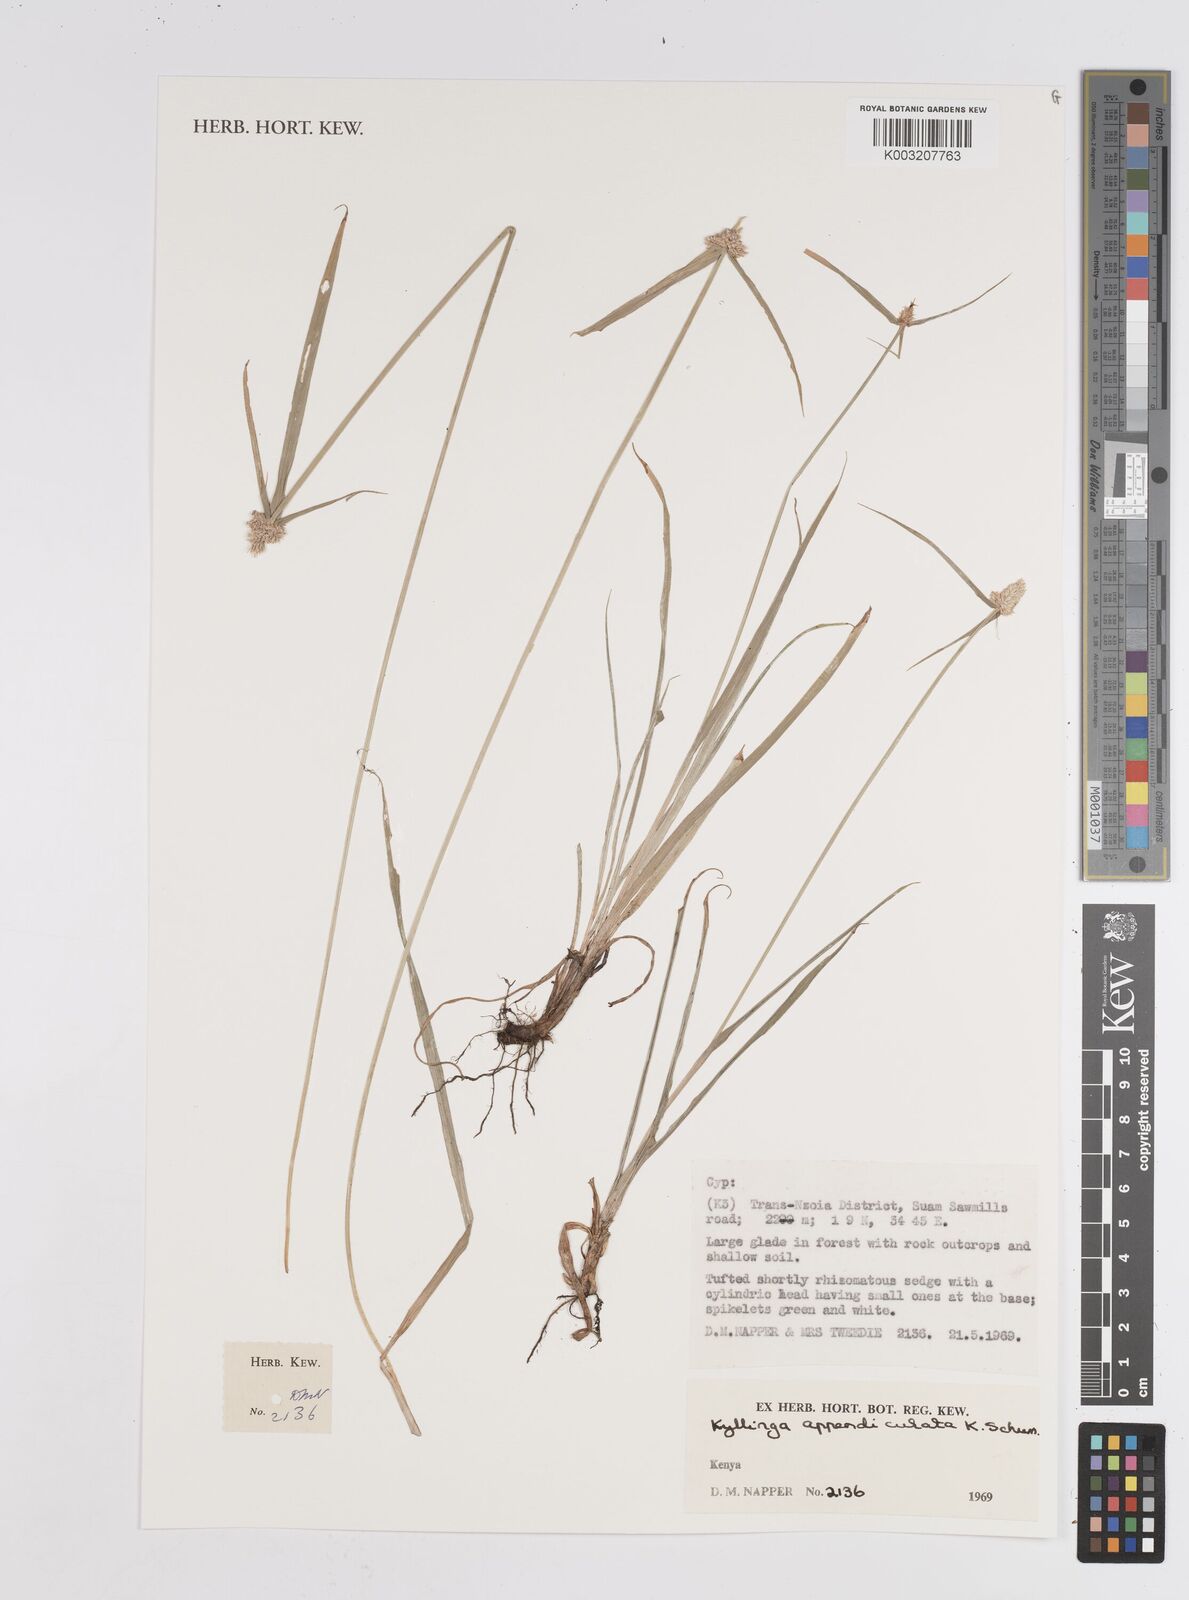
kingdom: Plantae
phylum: Tracheophyta
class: Liliopsida
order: Poales
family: Cyperaceae
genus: Cyperus
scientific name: Cyperus
